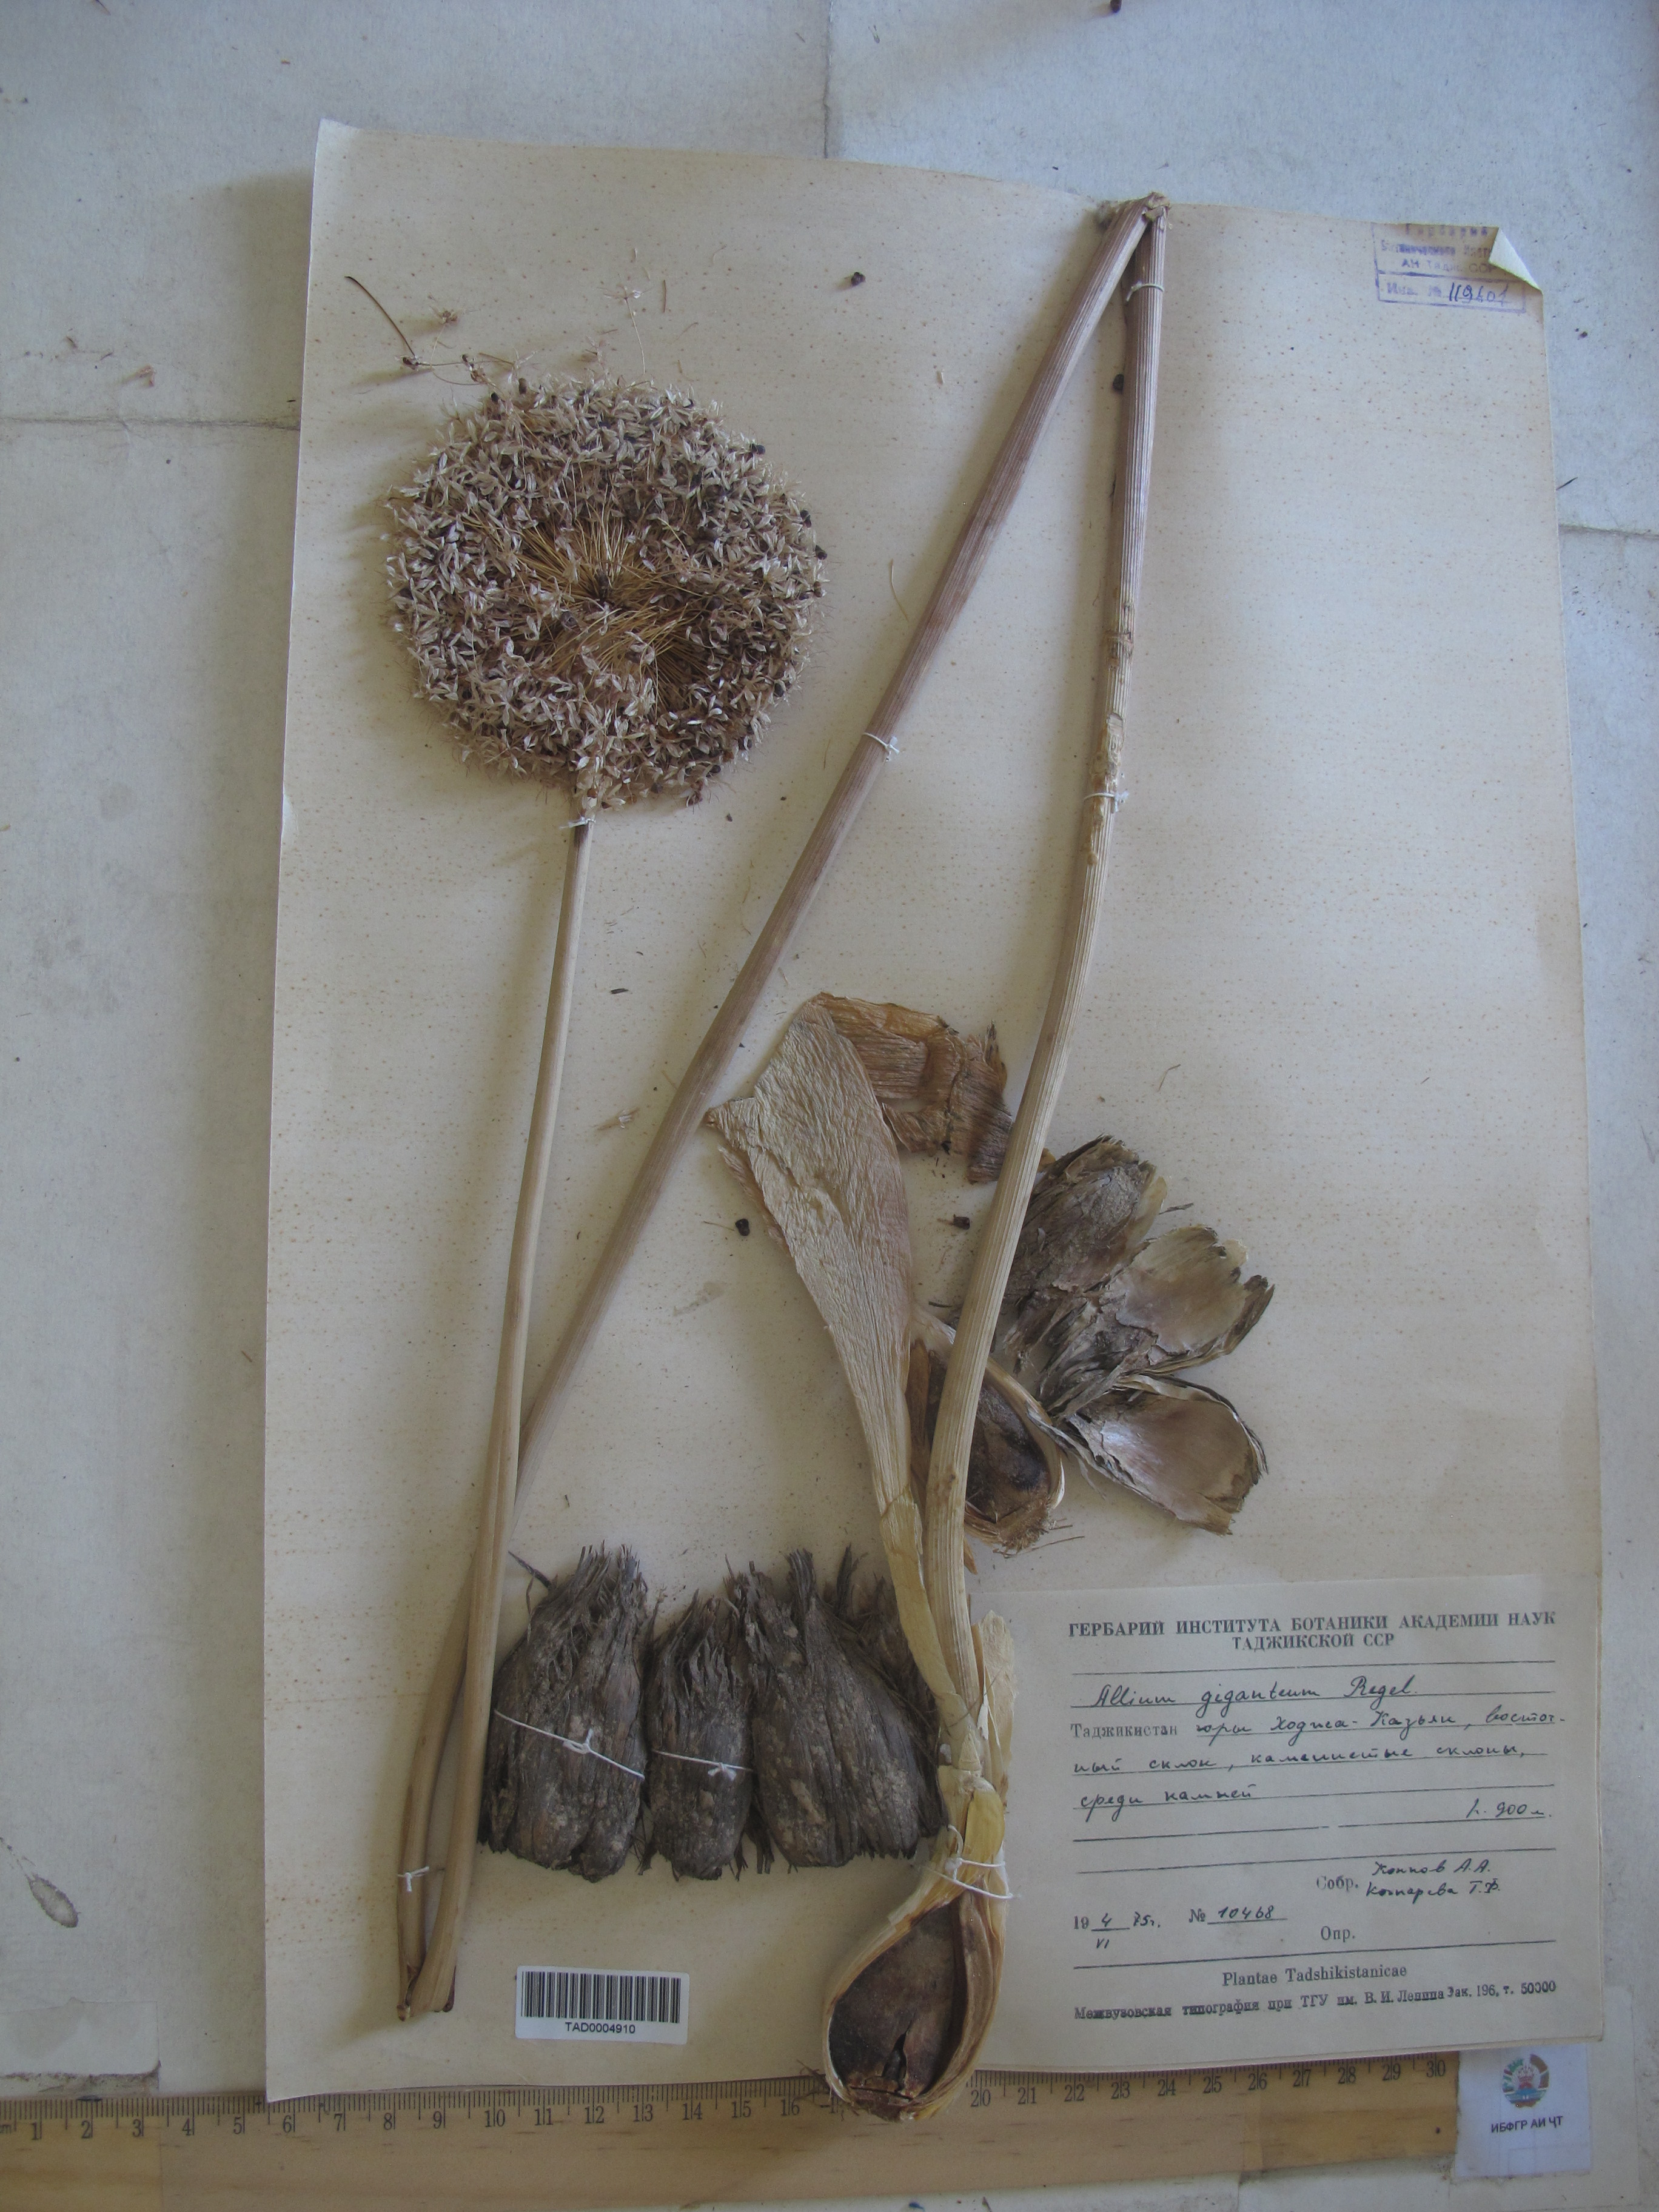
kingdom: Plantae
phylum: Tracheophyta
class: Liliopsida
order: Asparagales
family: Amaryllidaceae
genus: Allium
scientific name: Allium giganteum
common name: Giant onion
